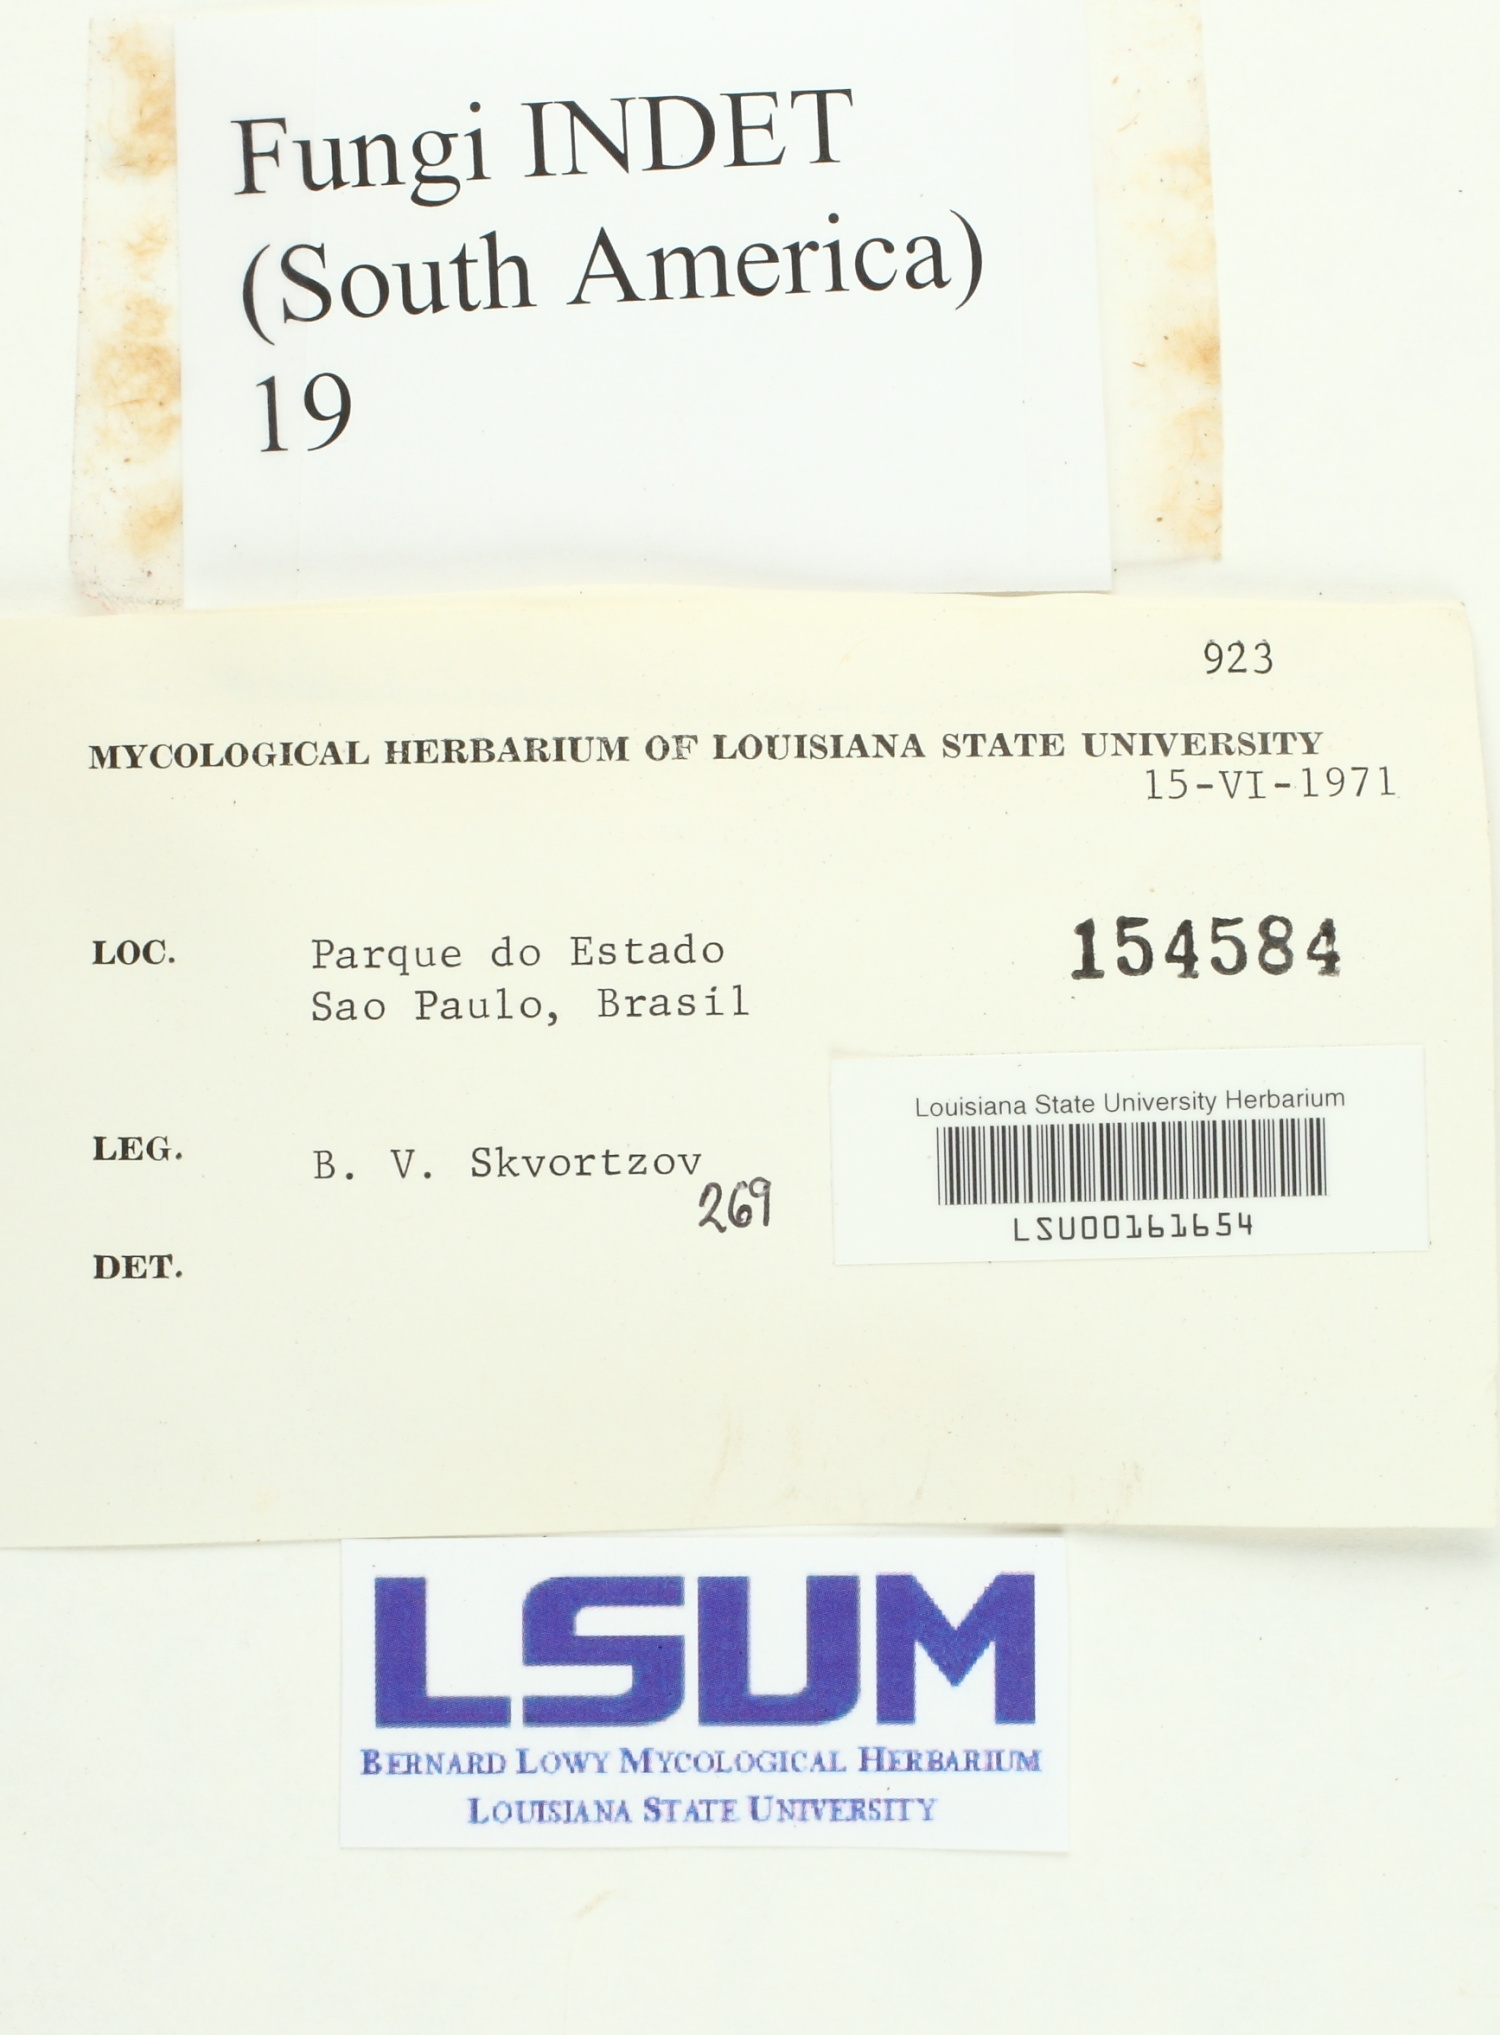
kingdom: Fungi
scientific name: Fungi
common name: Fungi
